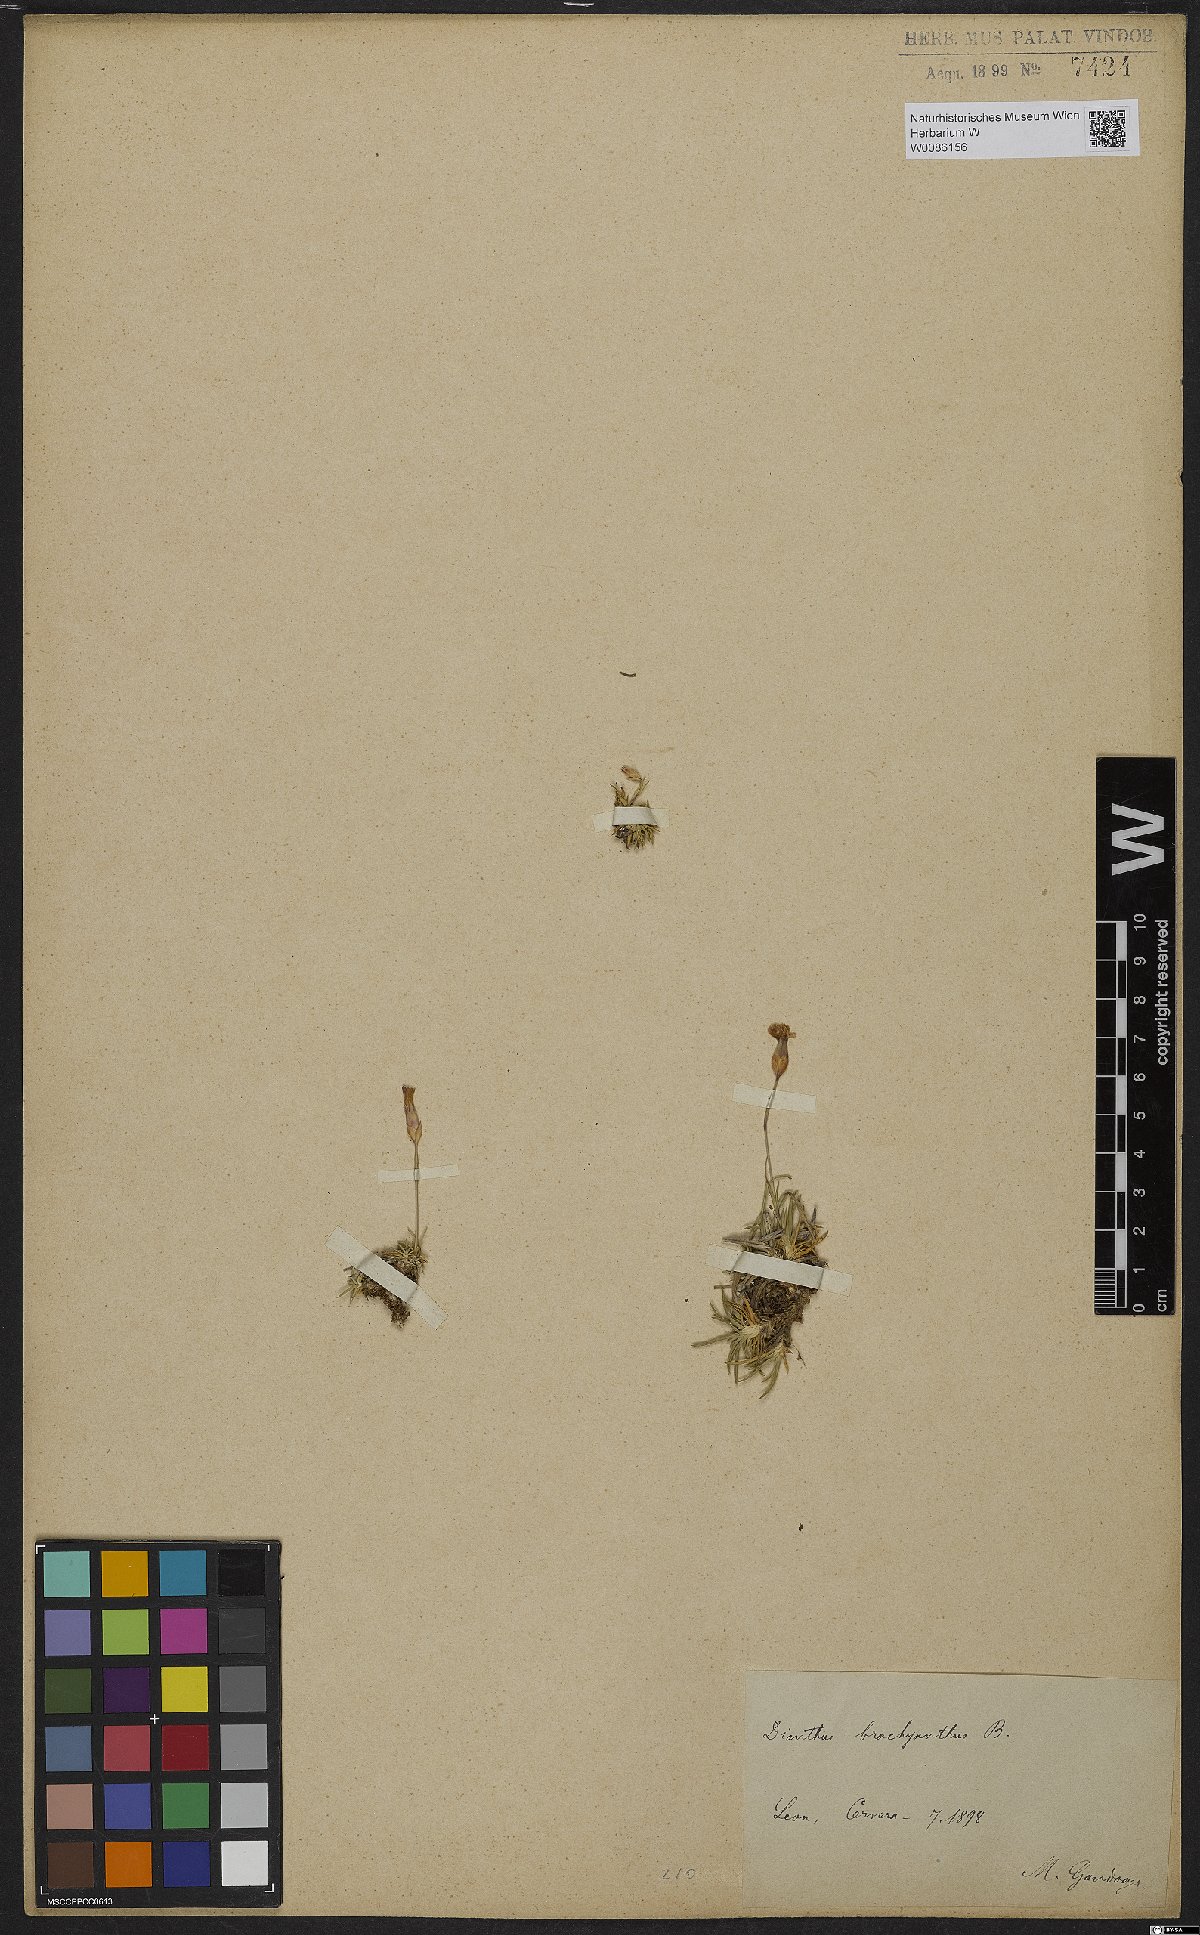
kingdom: Plantae
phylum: Tracheophyta
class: Magnoliopsida
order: Caryophyllales
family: Caryophyllaceae
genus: Dianthus
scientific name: Dianthus pungens
